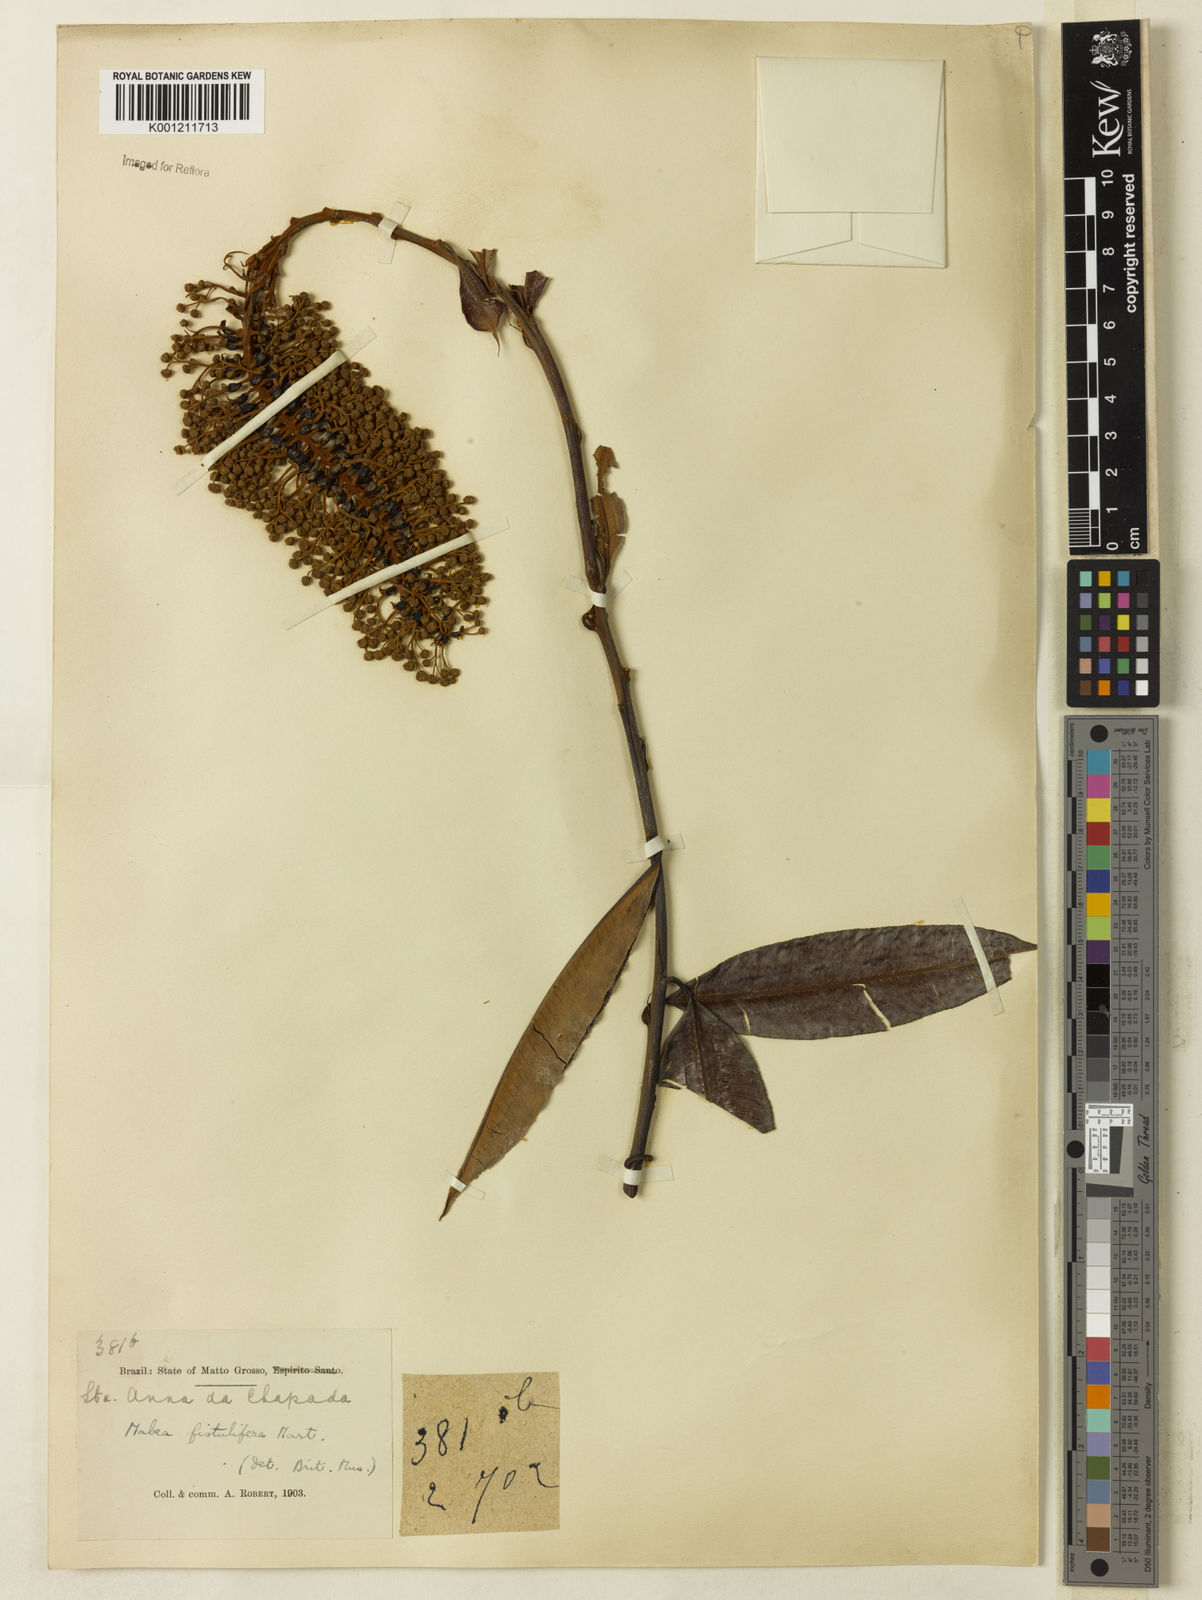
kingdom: Plantae
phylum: Tracheophyta
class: Magnoliopsida
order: Malpighiales
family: Euphorbiaceae
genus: Mabea
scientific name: Mabea fistulifera
